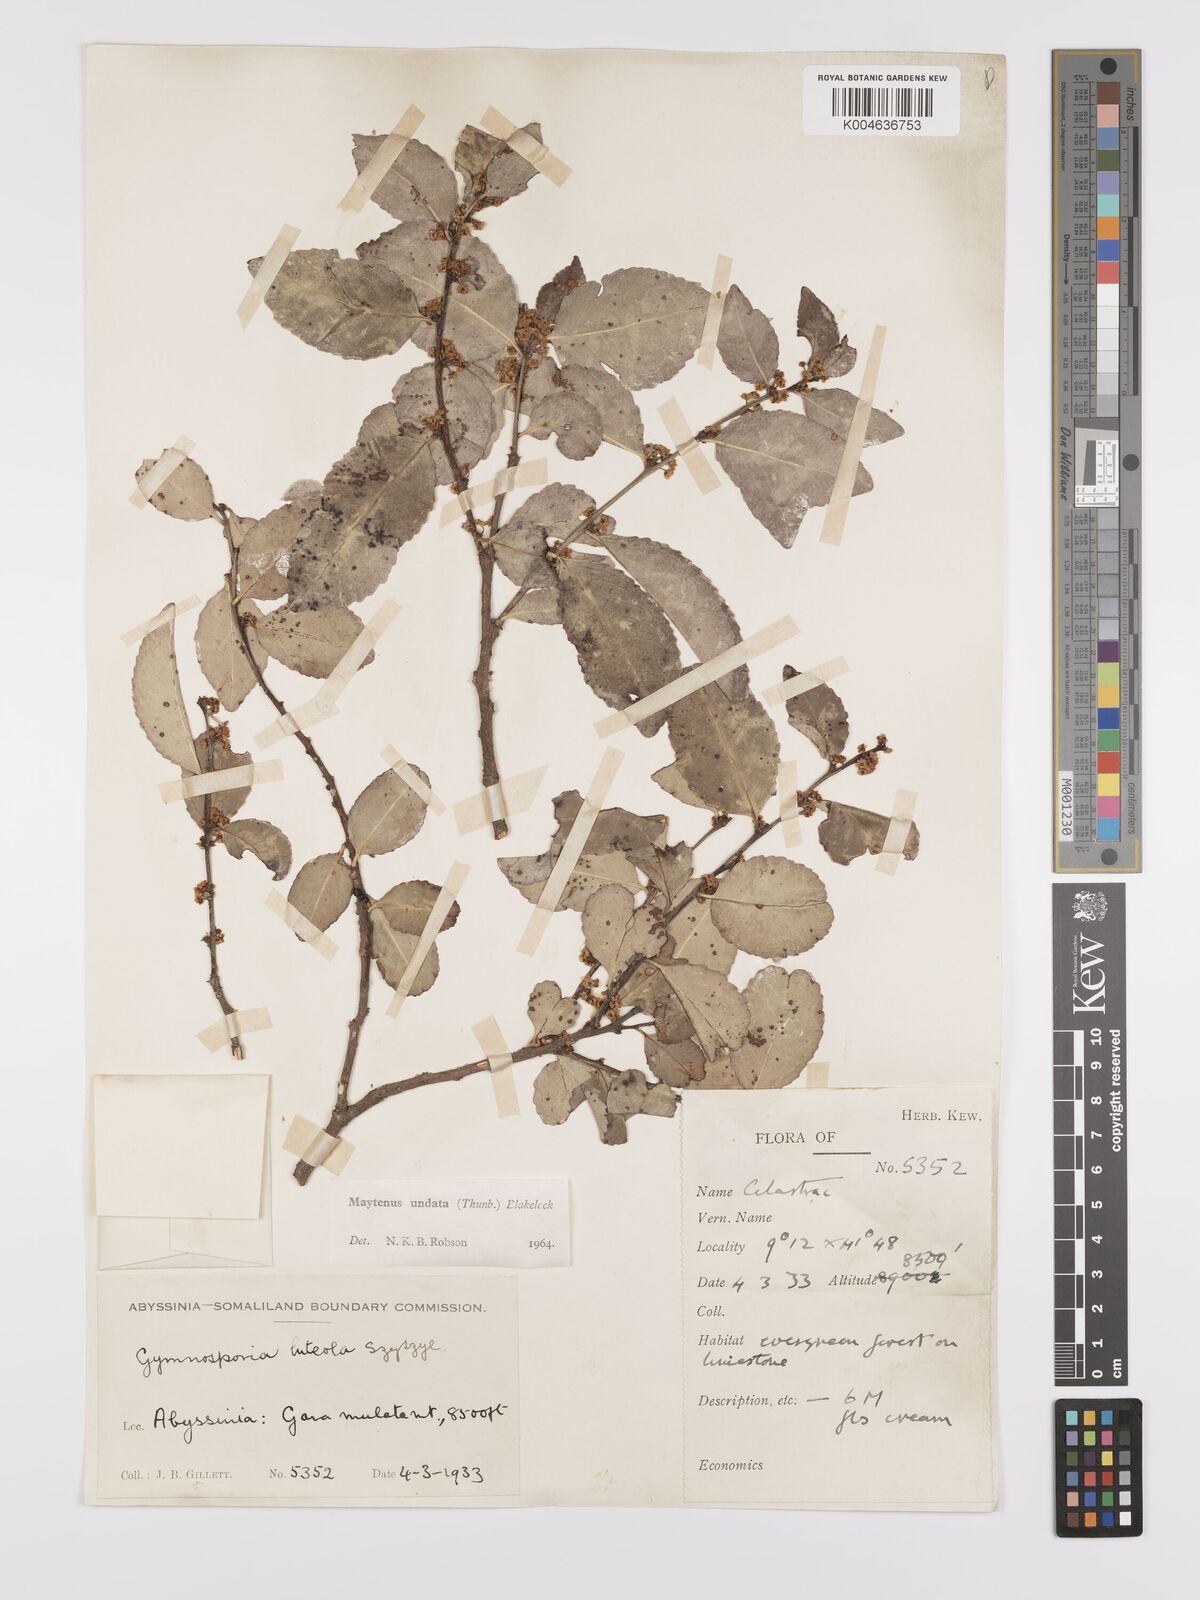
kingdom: Plantae
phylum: Tracheophyta
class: Magnoliopsida
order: Celastrales
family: Celastraceae
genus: Gymnosporia
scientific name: Gymnosporia undata
